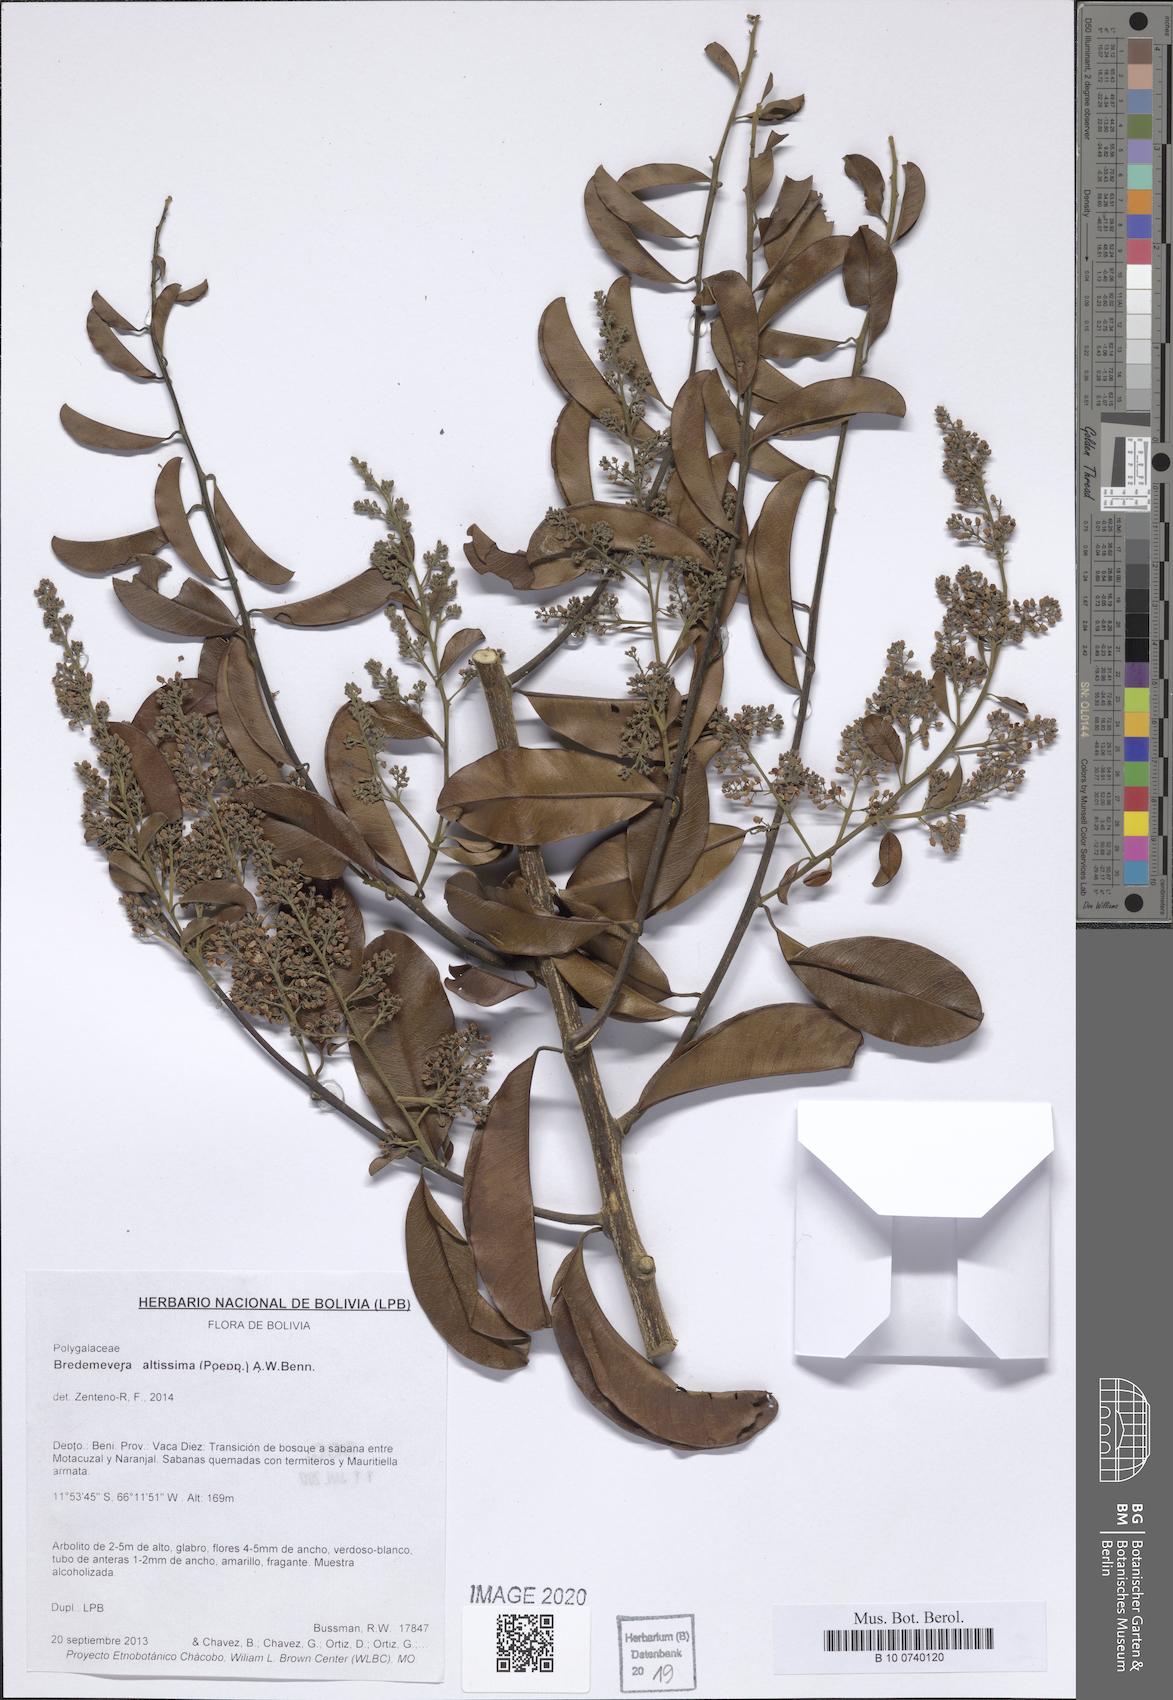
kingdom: Plantae
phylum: Tracheophyta
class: Magnoliopsida
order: Fabales
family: Polygalaceae
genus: Bredemeyera
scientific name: Bredemeyera divaricata
